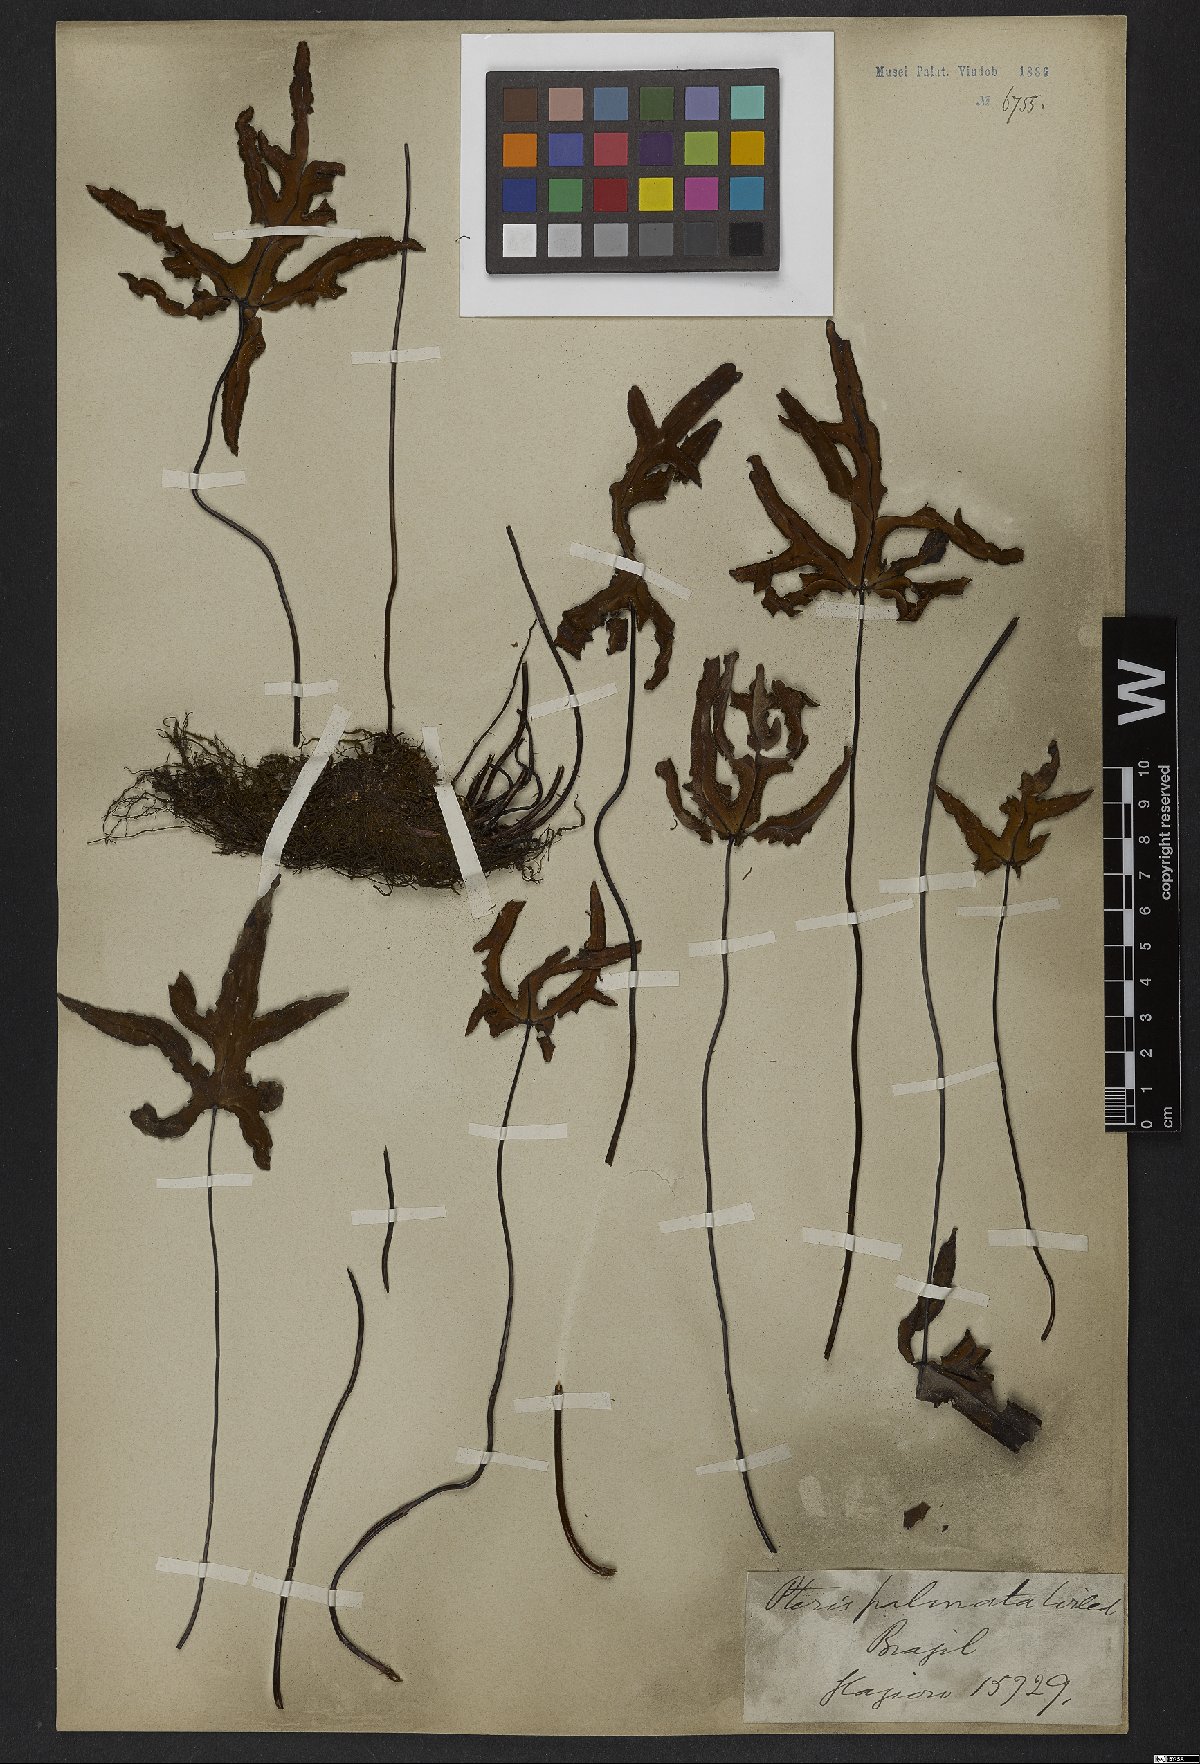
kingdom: Plantae
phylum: Tracheophyta
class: Polypodiopsida
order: Polypodiales
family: Pteridaceae
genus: Doryopteris
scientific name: Doryopteris pedata
